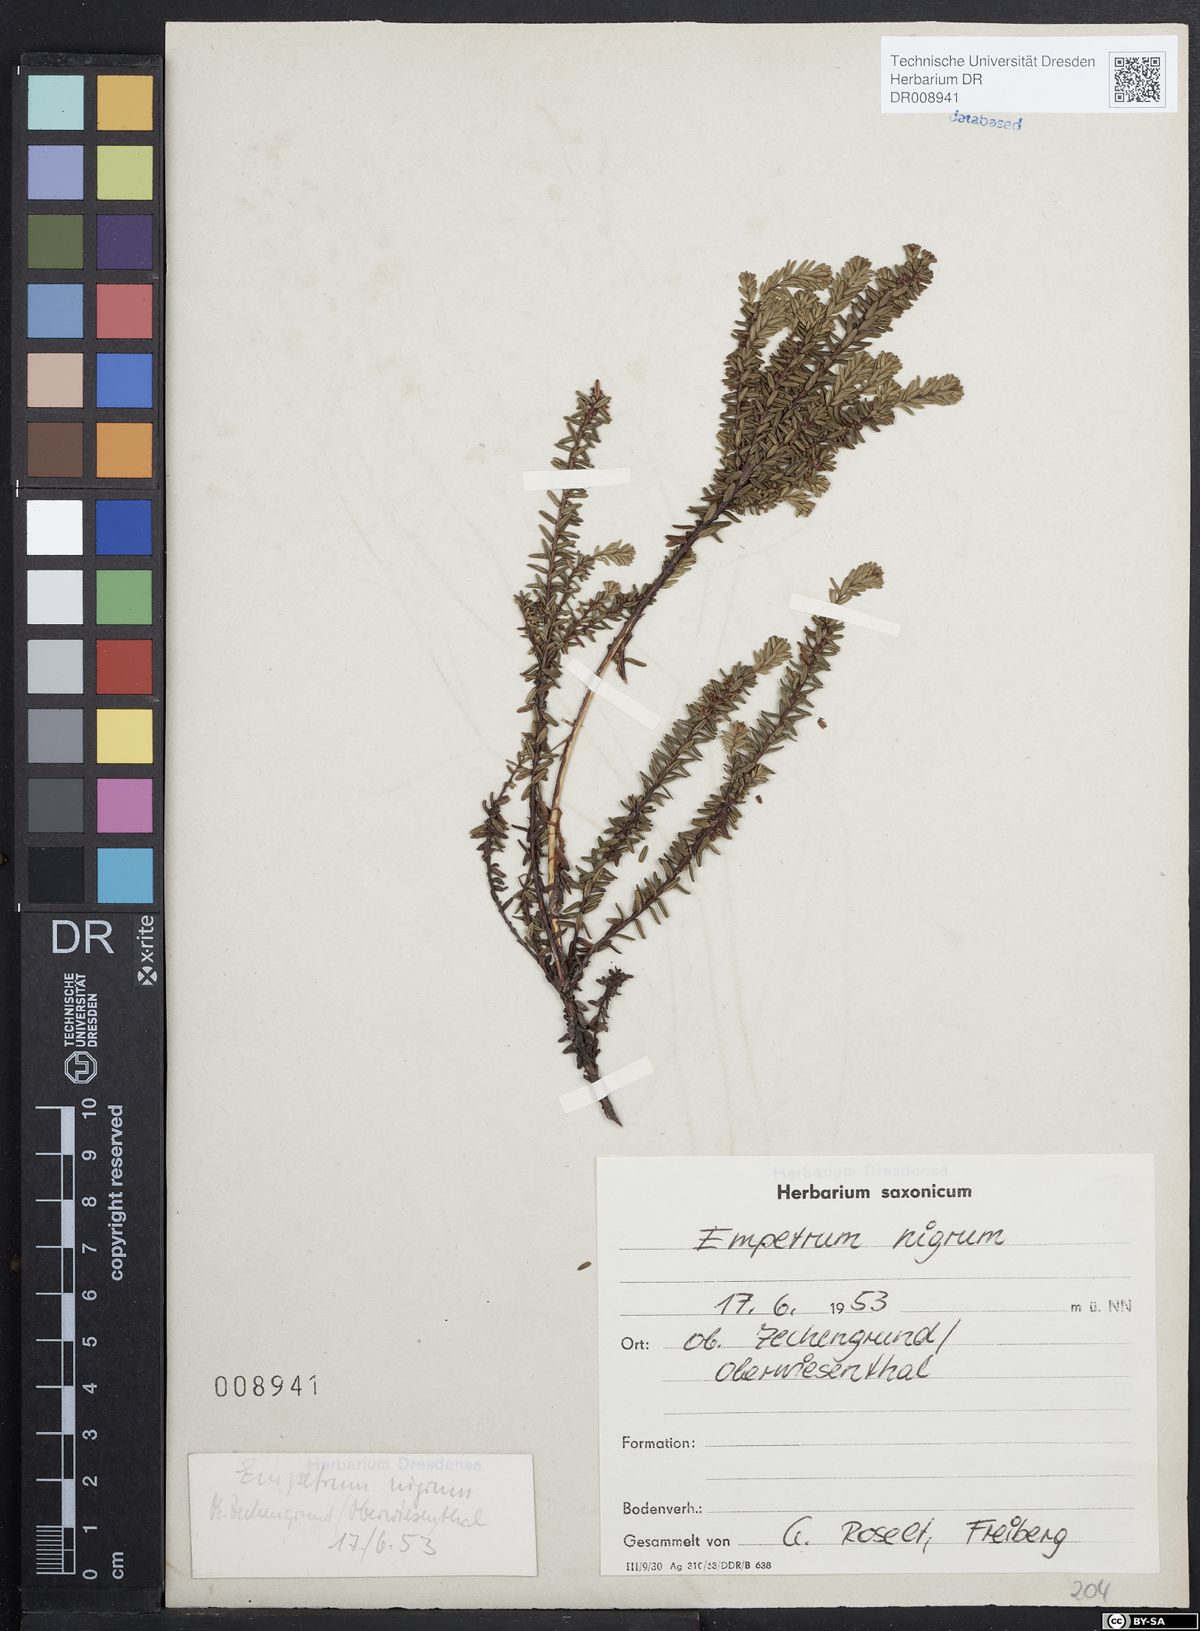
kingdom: Plantae
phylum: Tracheophyta
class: Magnoliopsida
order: Ericales
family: Ericaceae
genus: Empetrum
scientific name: Empetrum nigrum
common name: Black crowberry
